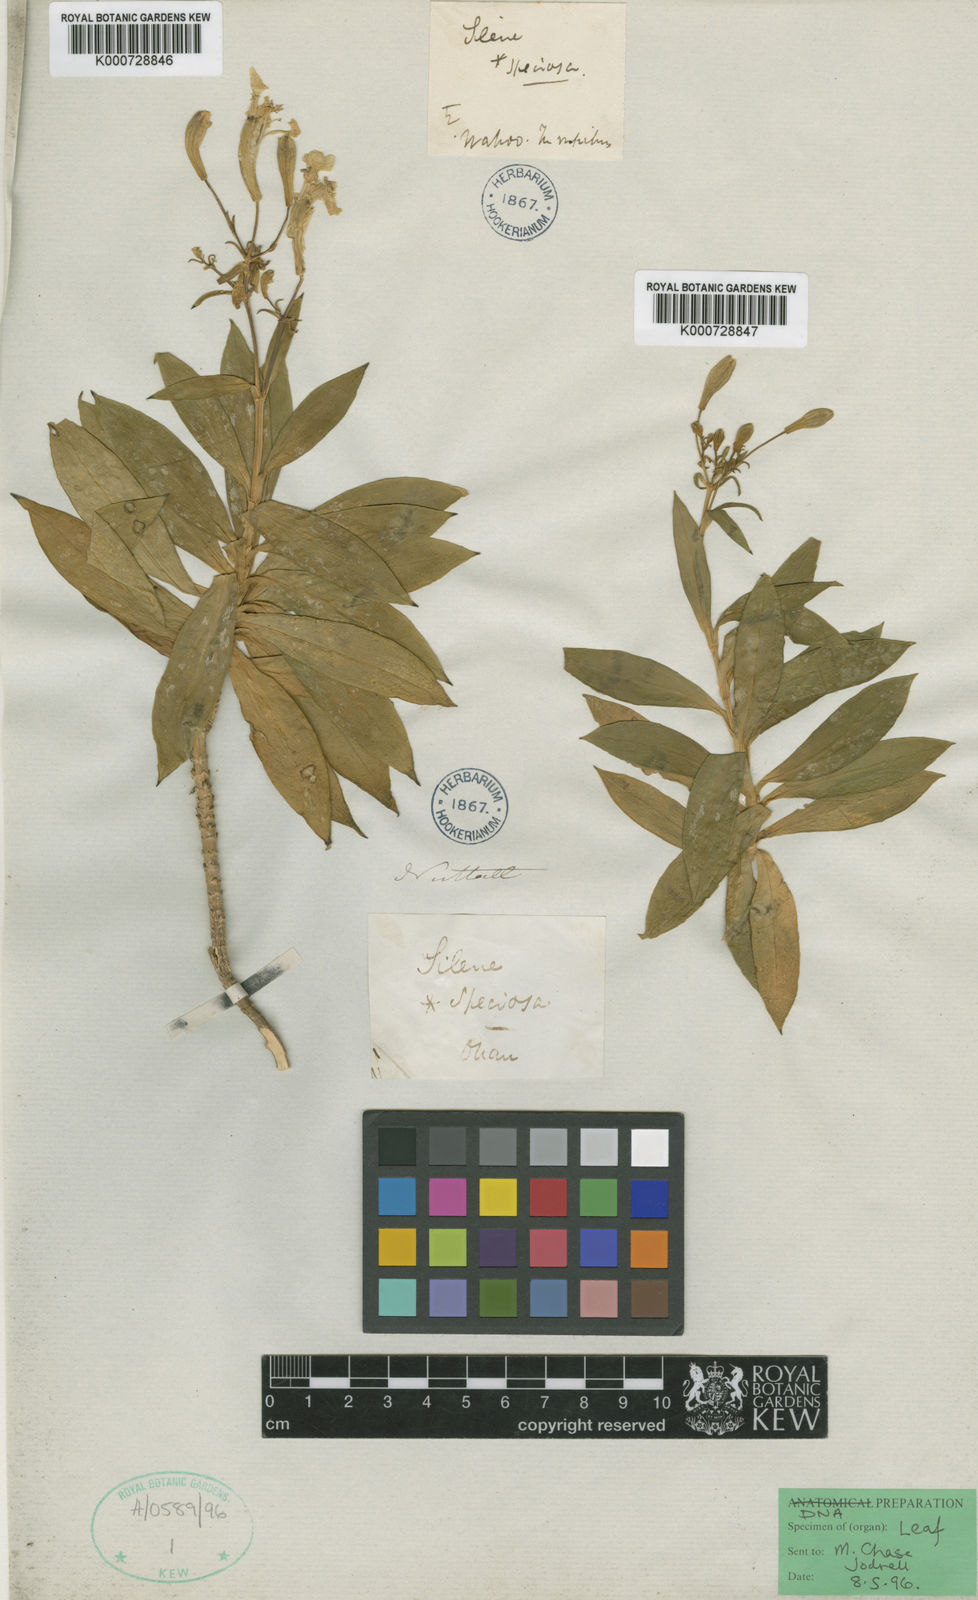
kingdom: Plantae
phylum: Tracheophyta
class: Magnoliopsida
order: Caryophyllales
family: Caryophyllaceae
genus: Silene
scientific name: Silene laciniata
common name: Indian-pink
